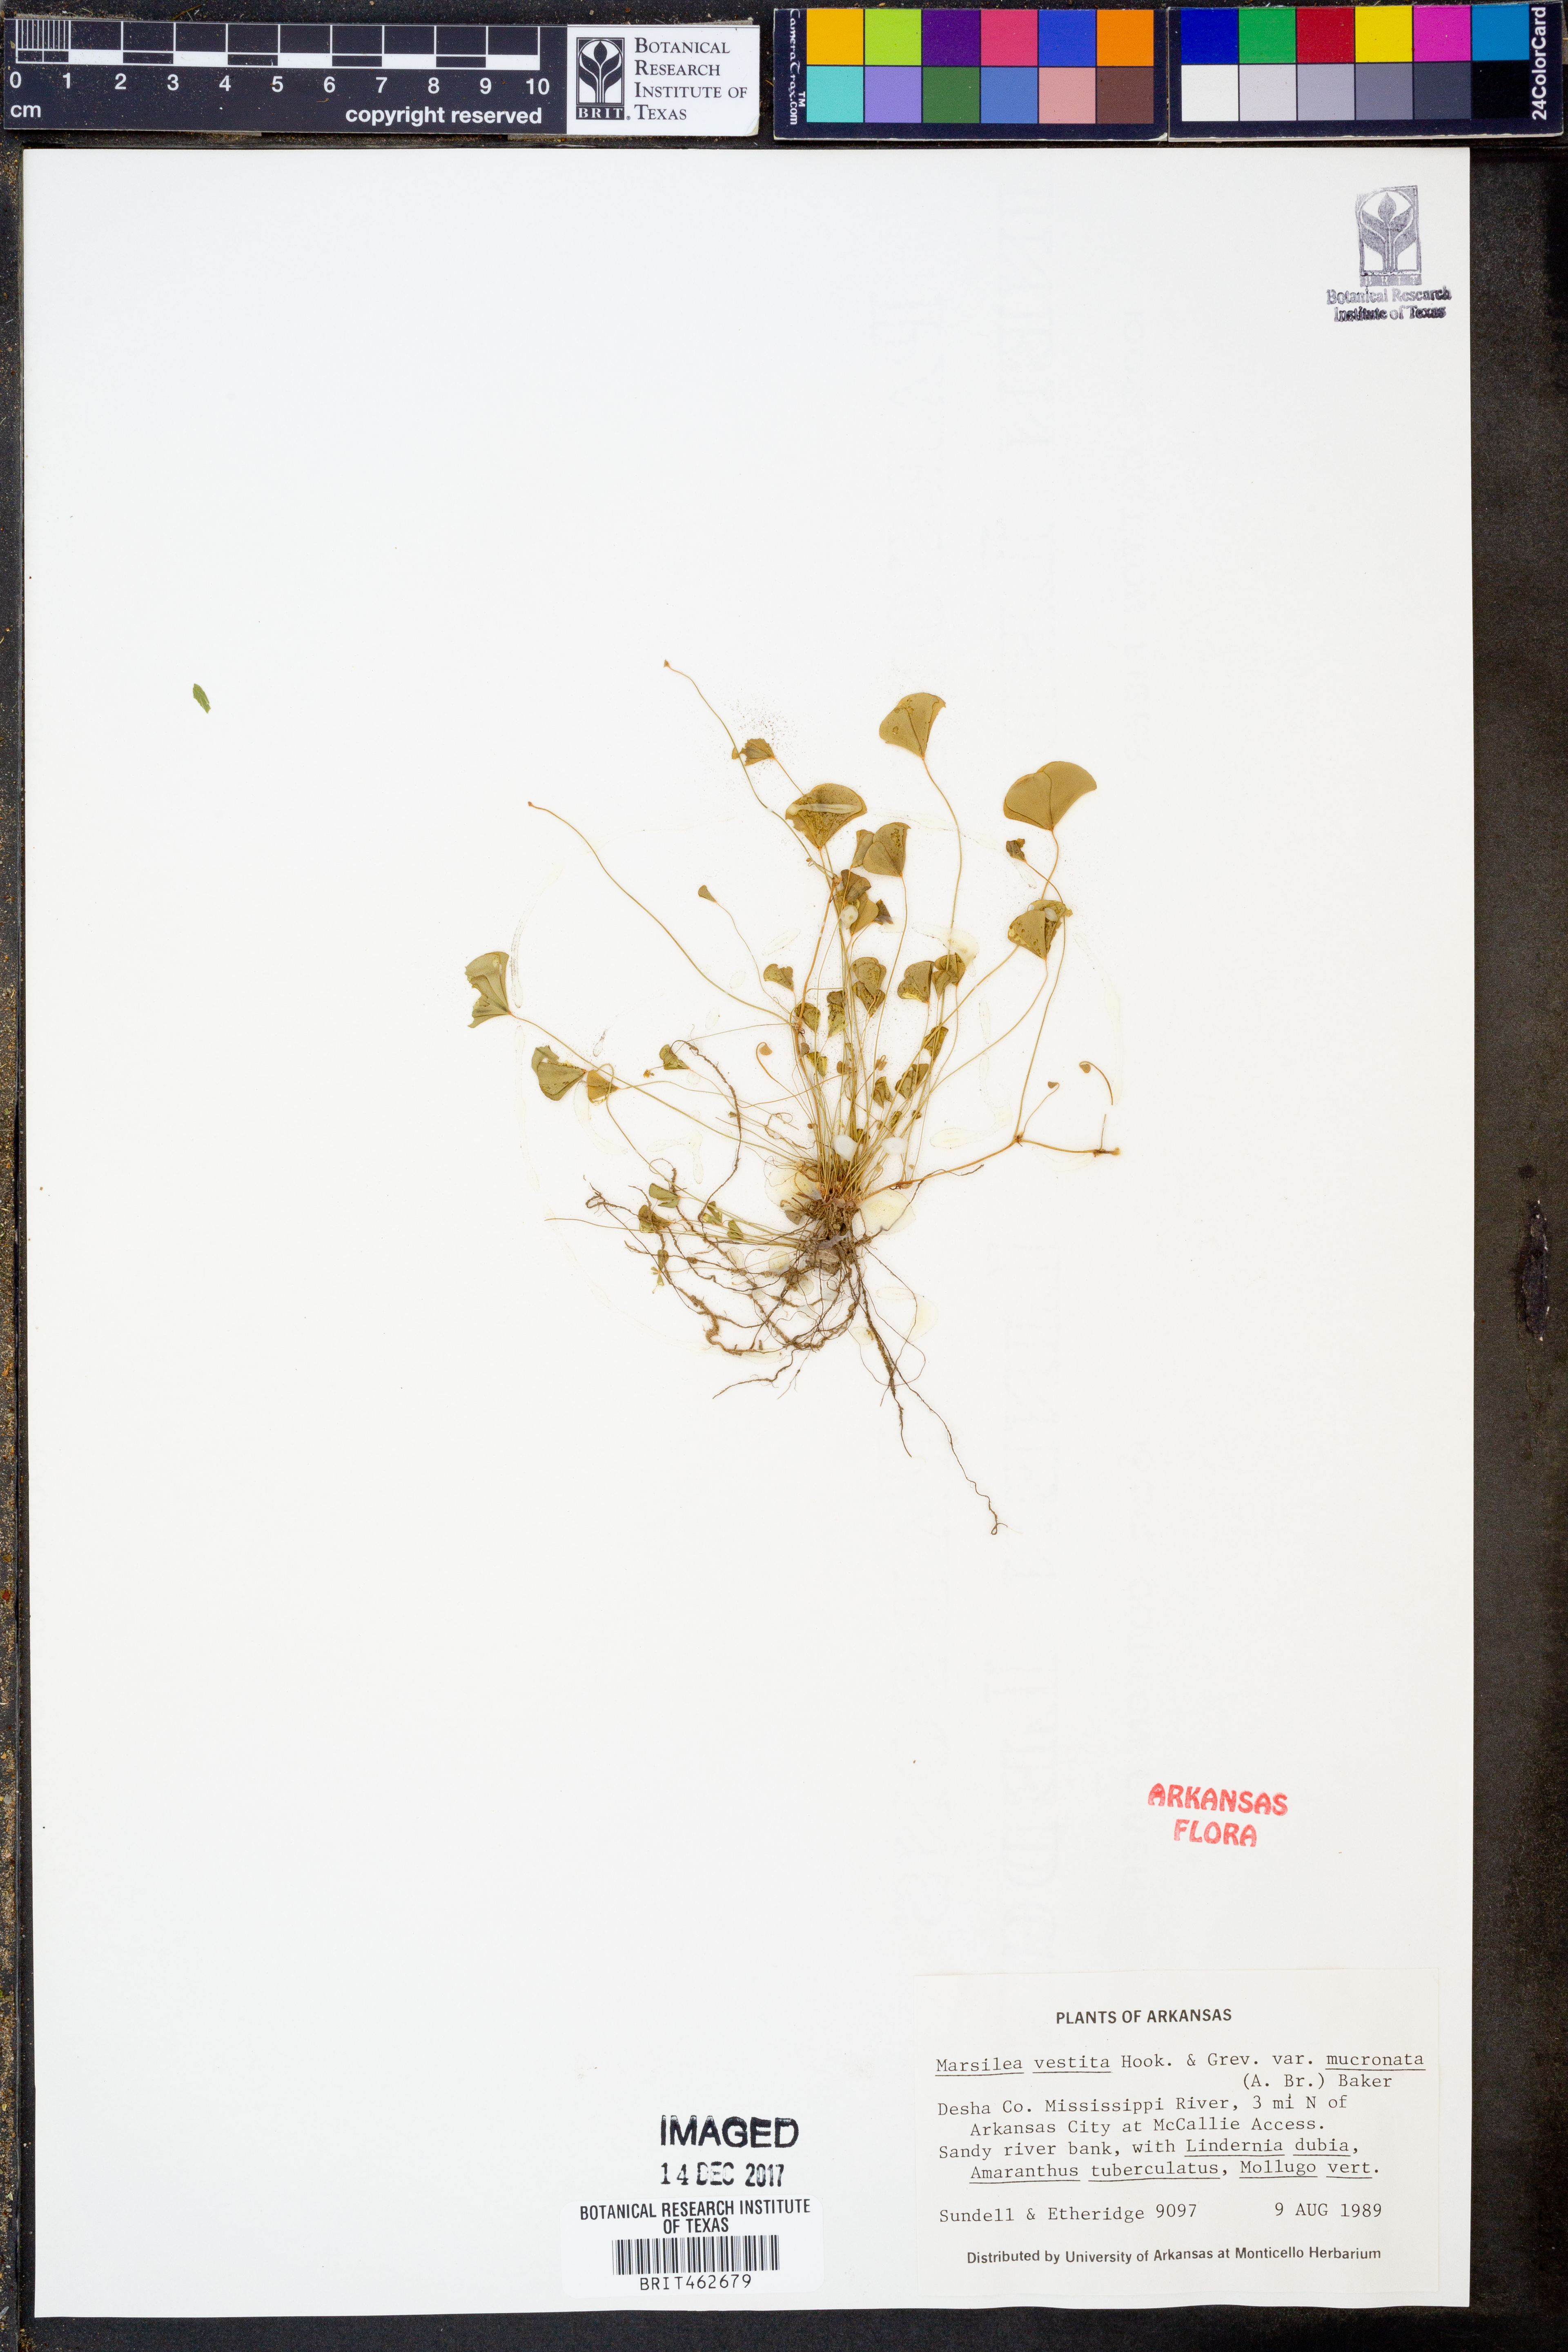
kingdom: Plantae
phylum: Tracheophyta
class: Polypodiopsida
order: Salviniales
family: Marsileaceae
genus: Marsilea
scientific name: Marsilea vestita
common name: Hooked-pepperwort
